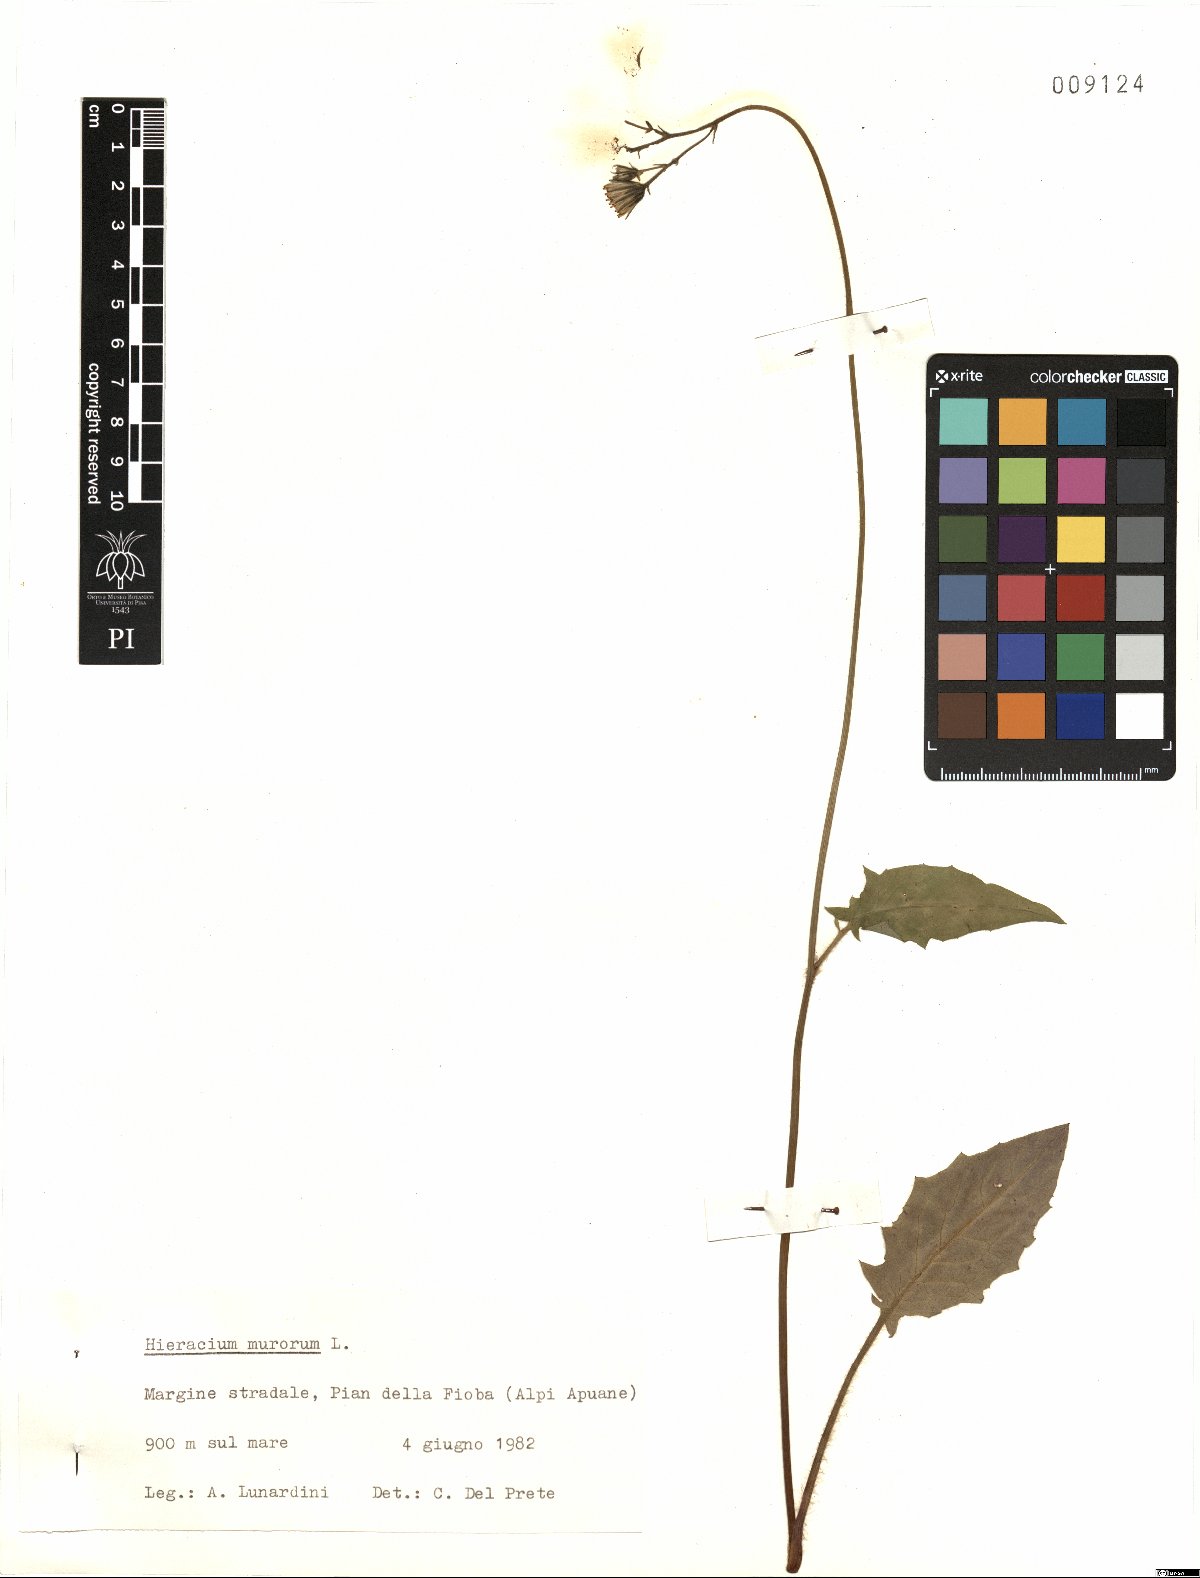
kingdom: Plantae
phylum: Tracheophyta
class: Magnoliopsida
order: Asterales
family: Asteraceae
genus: Hieracium
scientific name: Hieracium murorum
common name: Wall hawkweed
